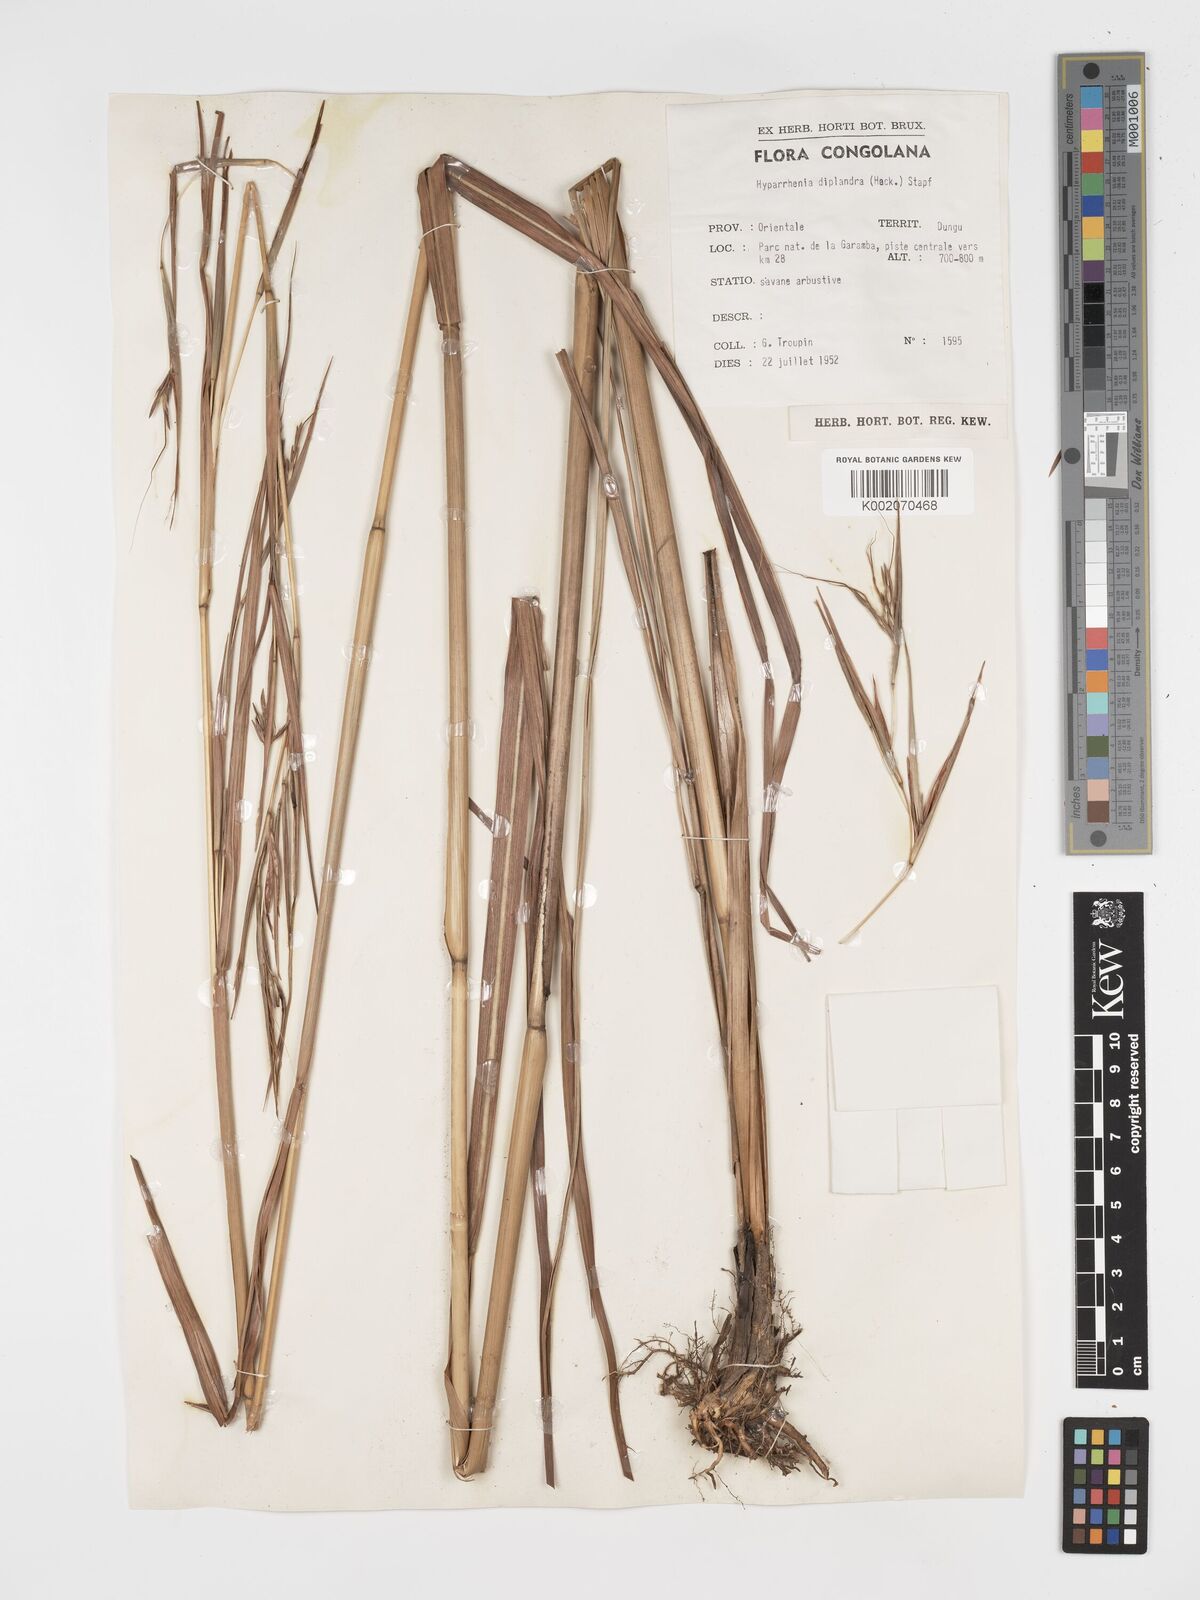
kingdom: Plantae
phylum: Tracheophyta
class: Liliopsida
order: Poales
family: Poaceae
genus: Hyparrhenia
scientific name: Hyparrhenia diplandra
